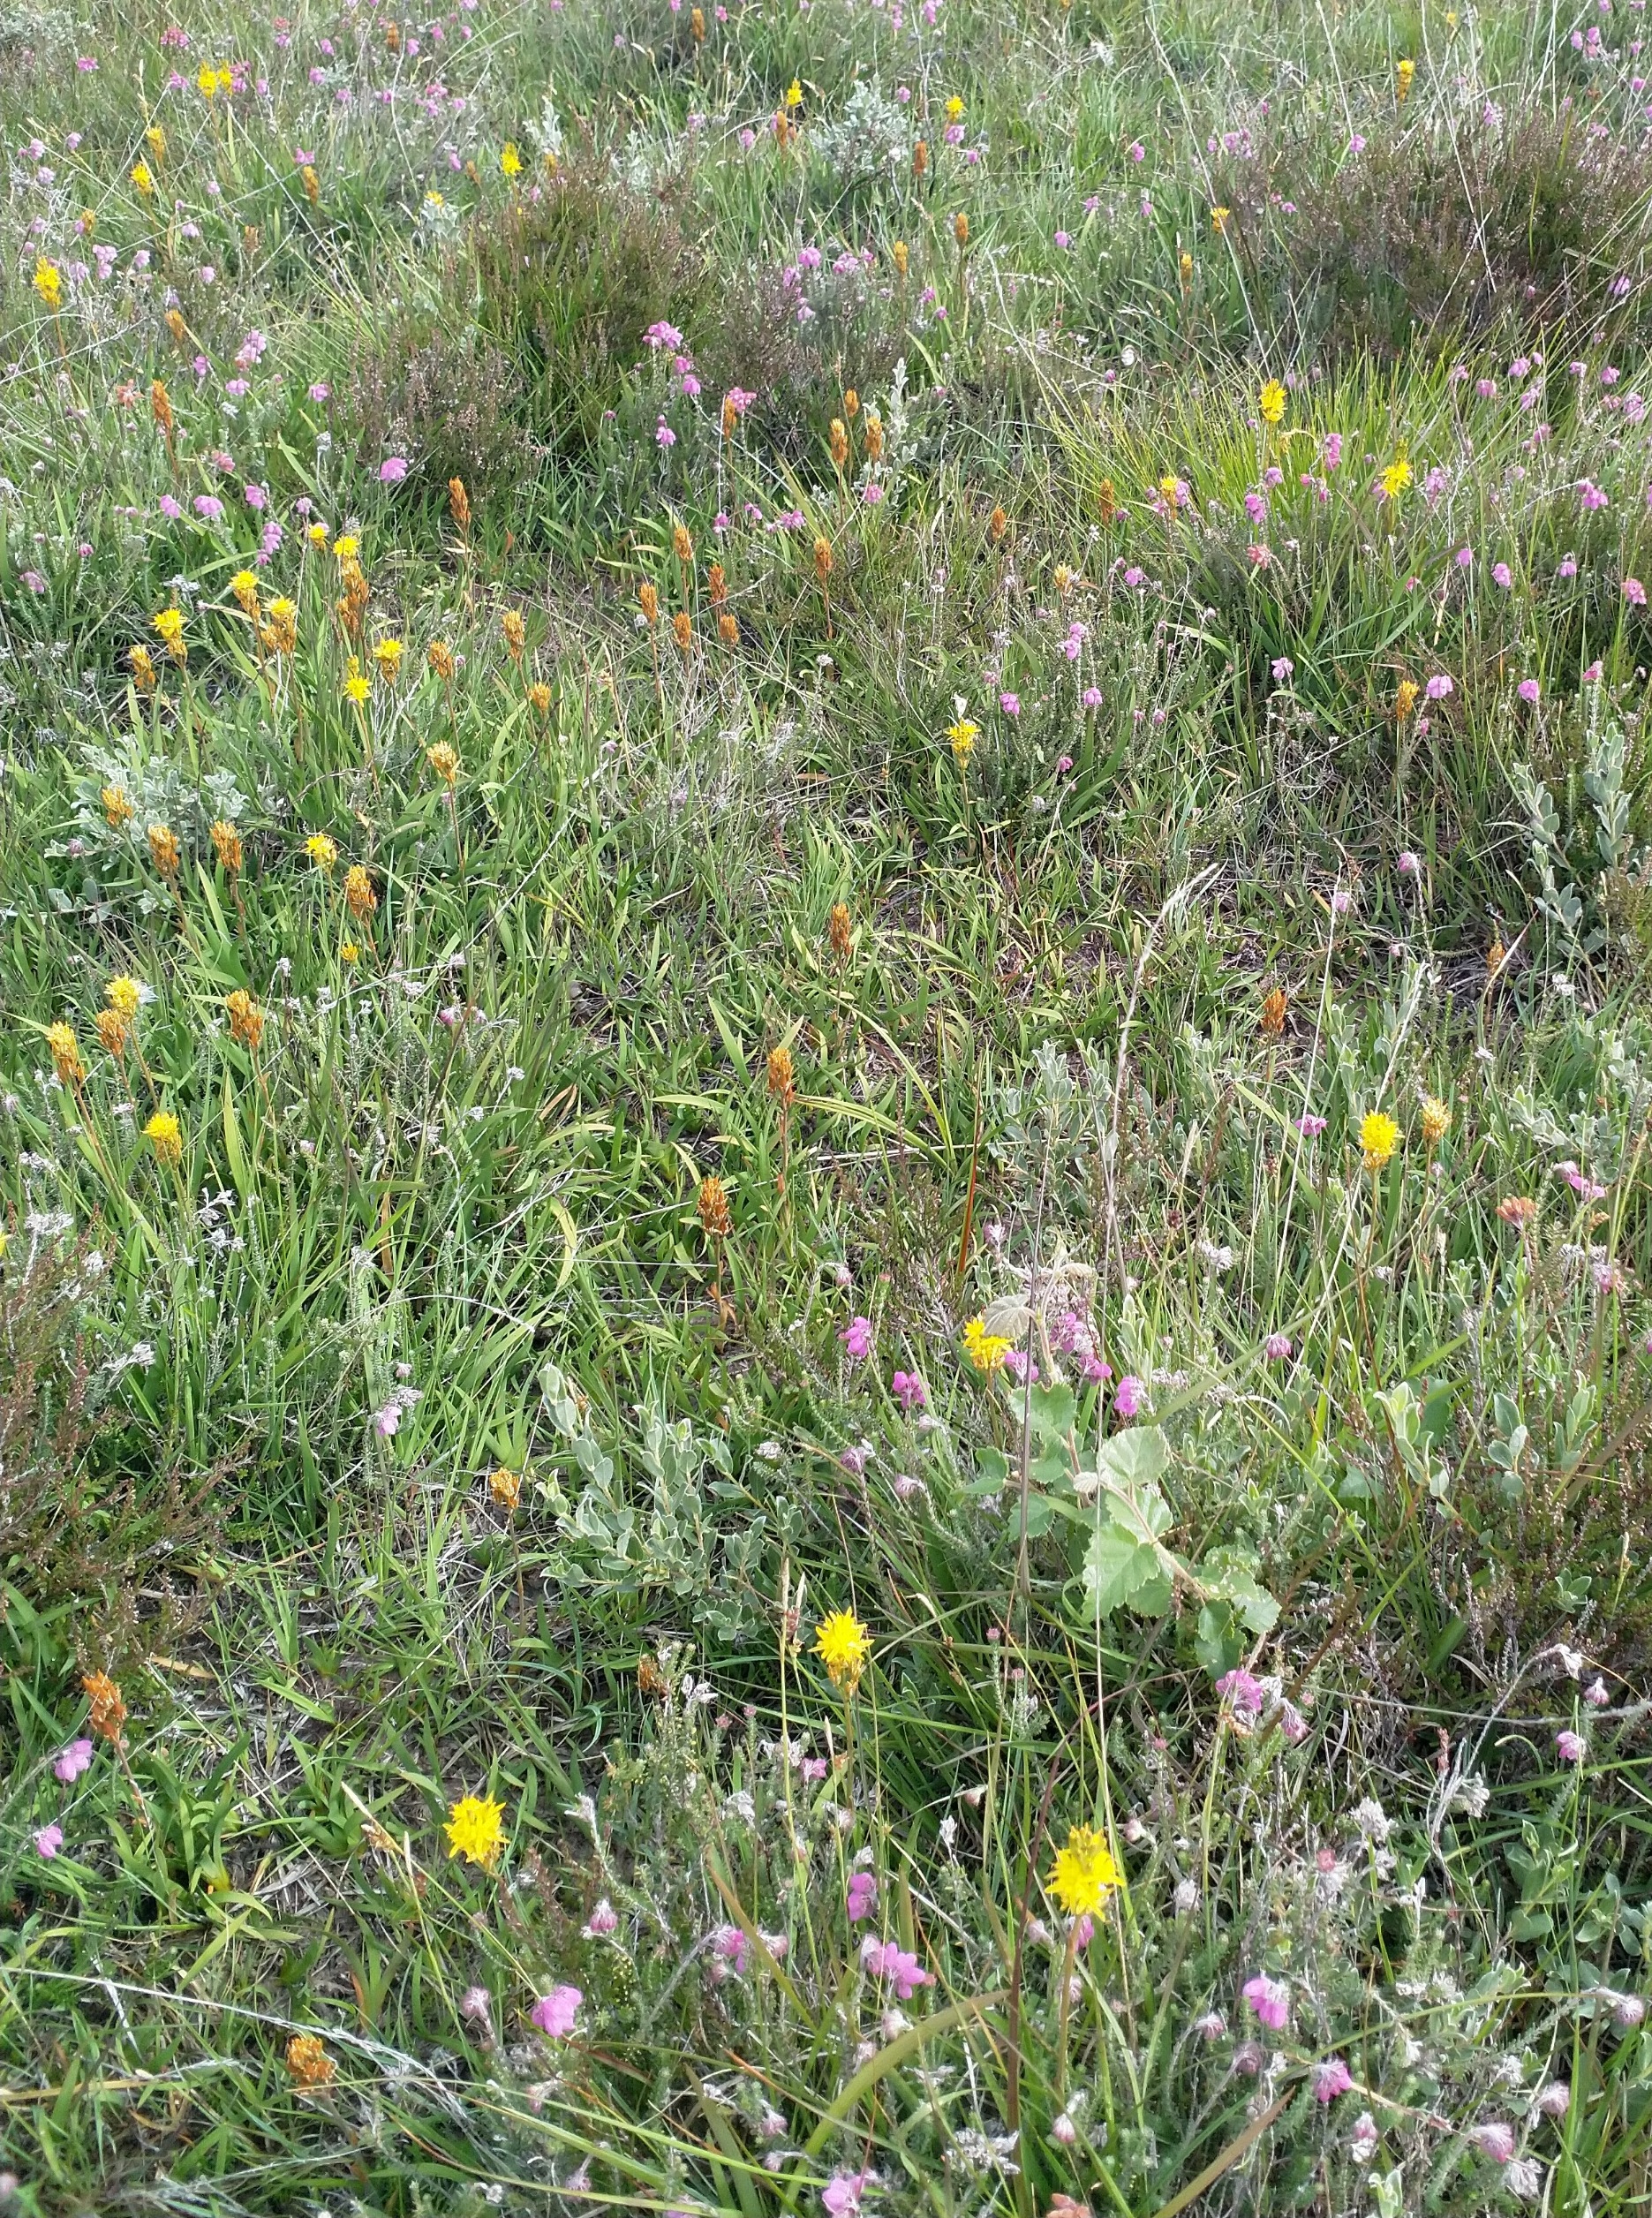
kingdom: Plantae
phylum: Tracheophyta
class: Liliopsida
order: Dioscoreales
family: Nartheciaceae
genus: Narthecium
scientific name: Narthecium ossifragum
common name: Benbræk
